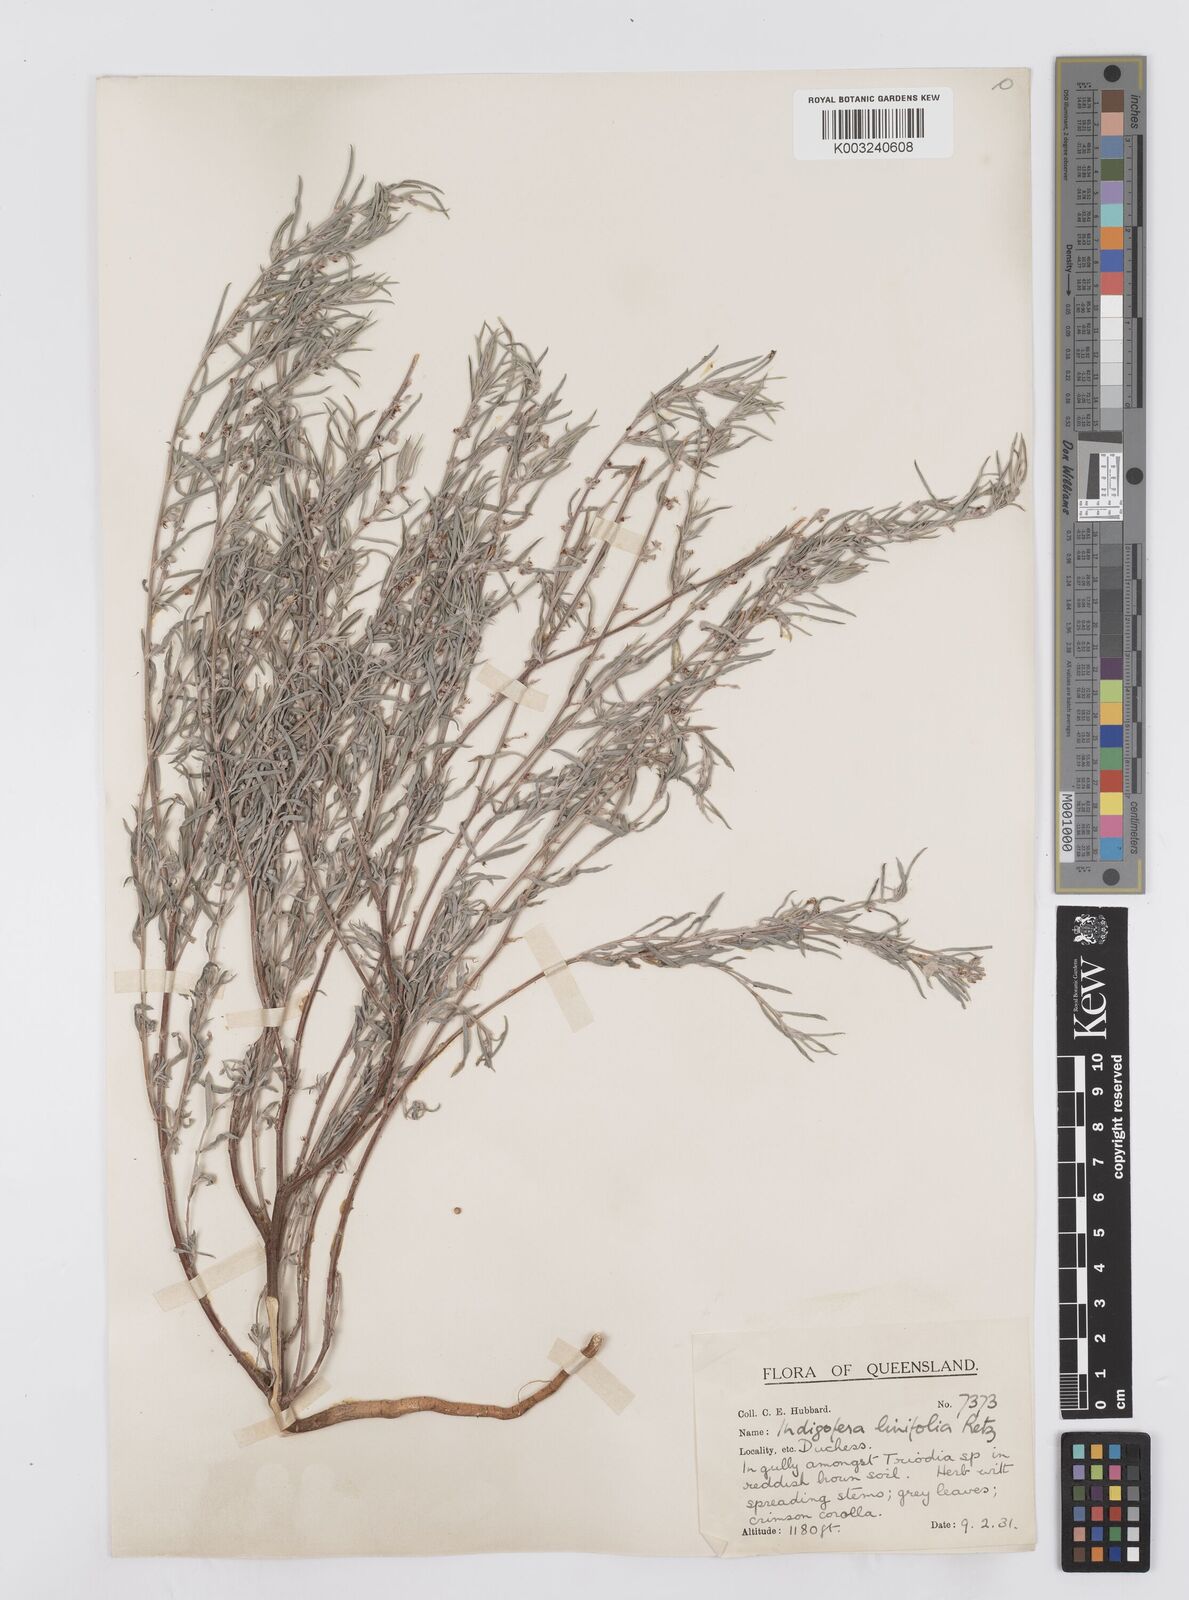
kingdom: Plantae
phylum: Tracheophyta
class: Magnoliopsida
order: Fabales
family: Fabaceae
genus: Indigofera
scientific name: Indigofera linifolia
